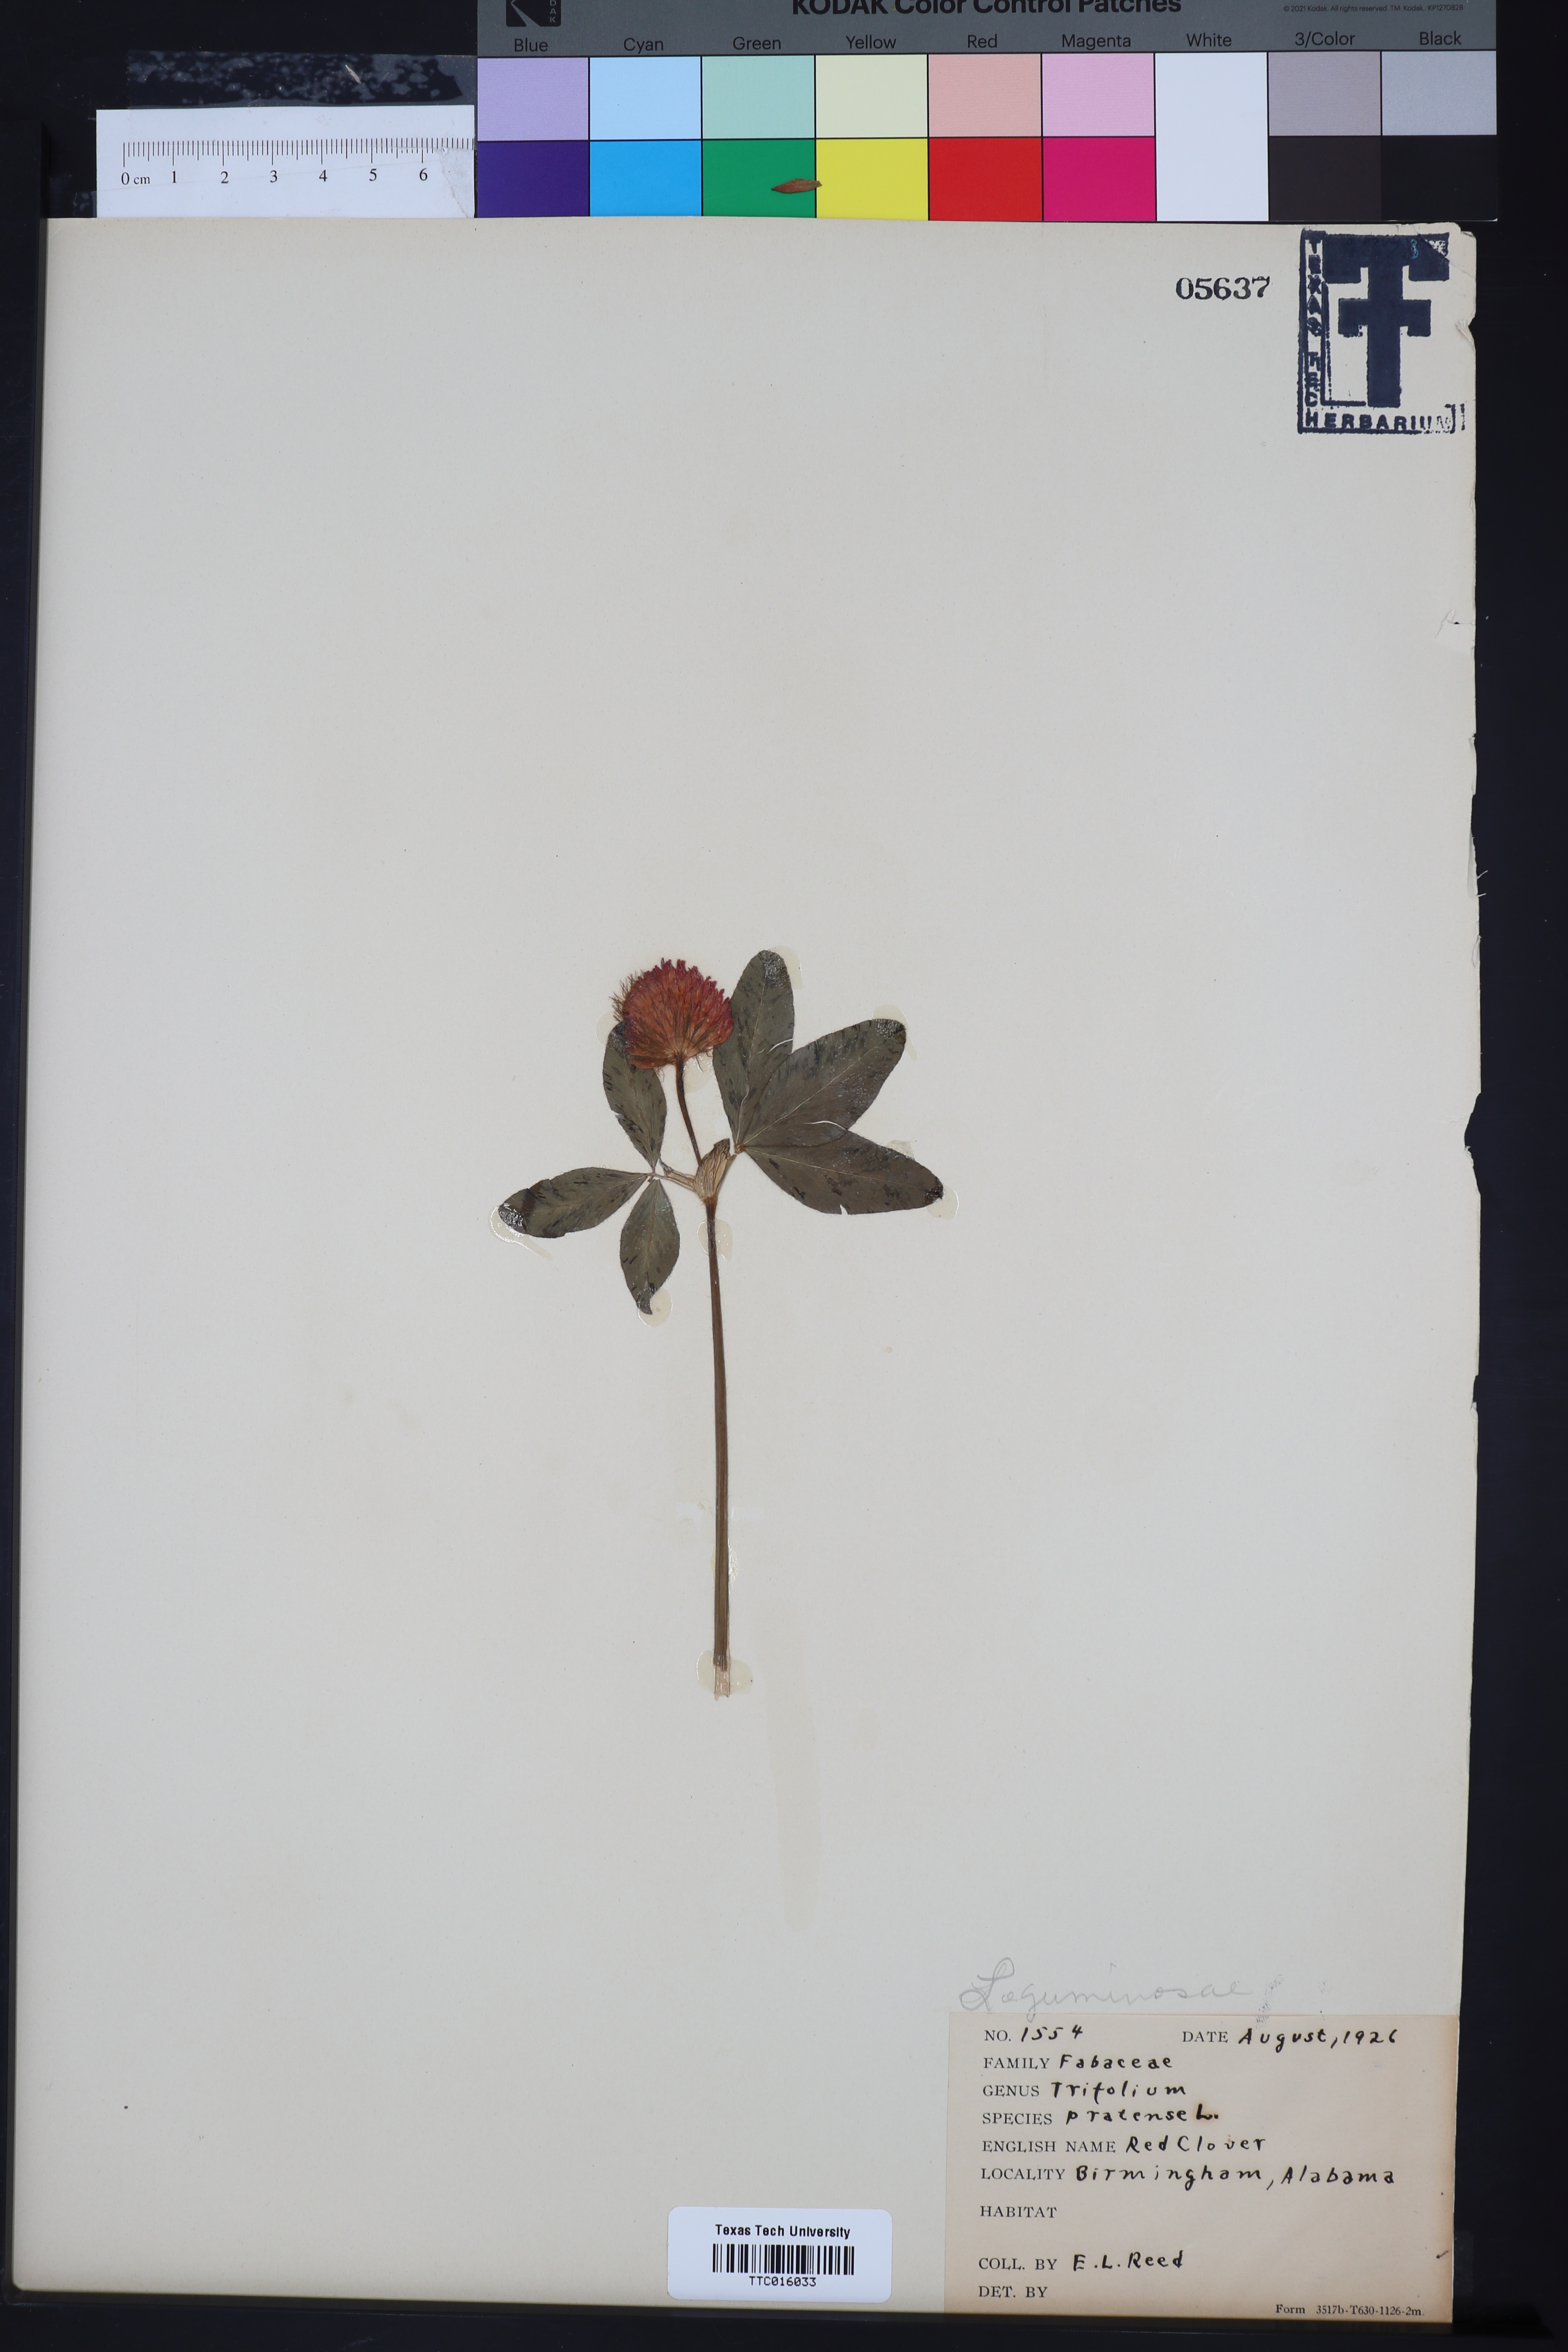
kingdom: Plantae
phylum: Tracheophyta
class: Magnoliopsida
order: Fabales
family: Fabaceae
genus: Trifolium
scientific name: Trifolium pratense
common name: Red clover
